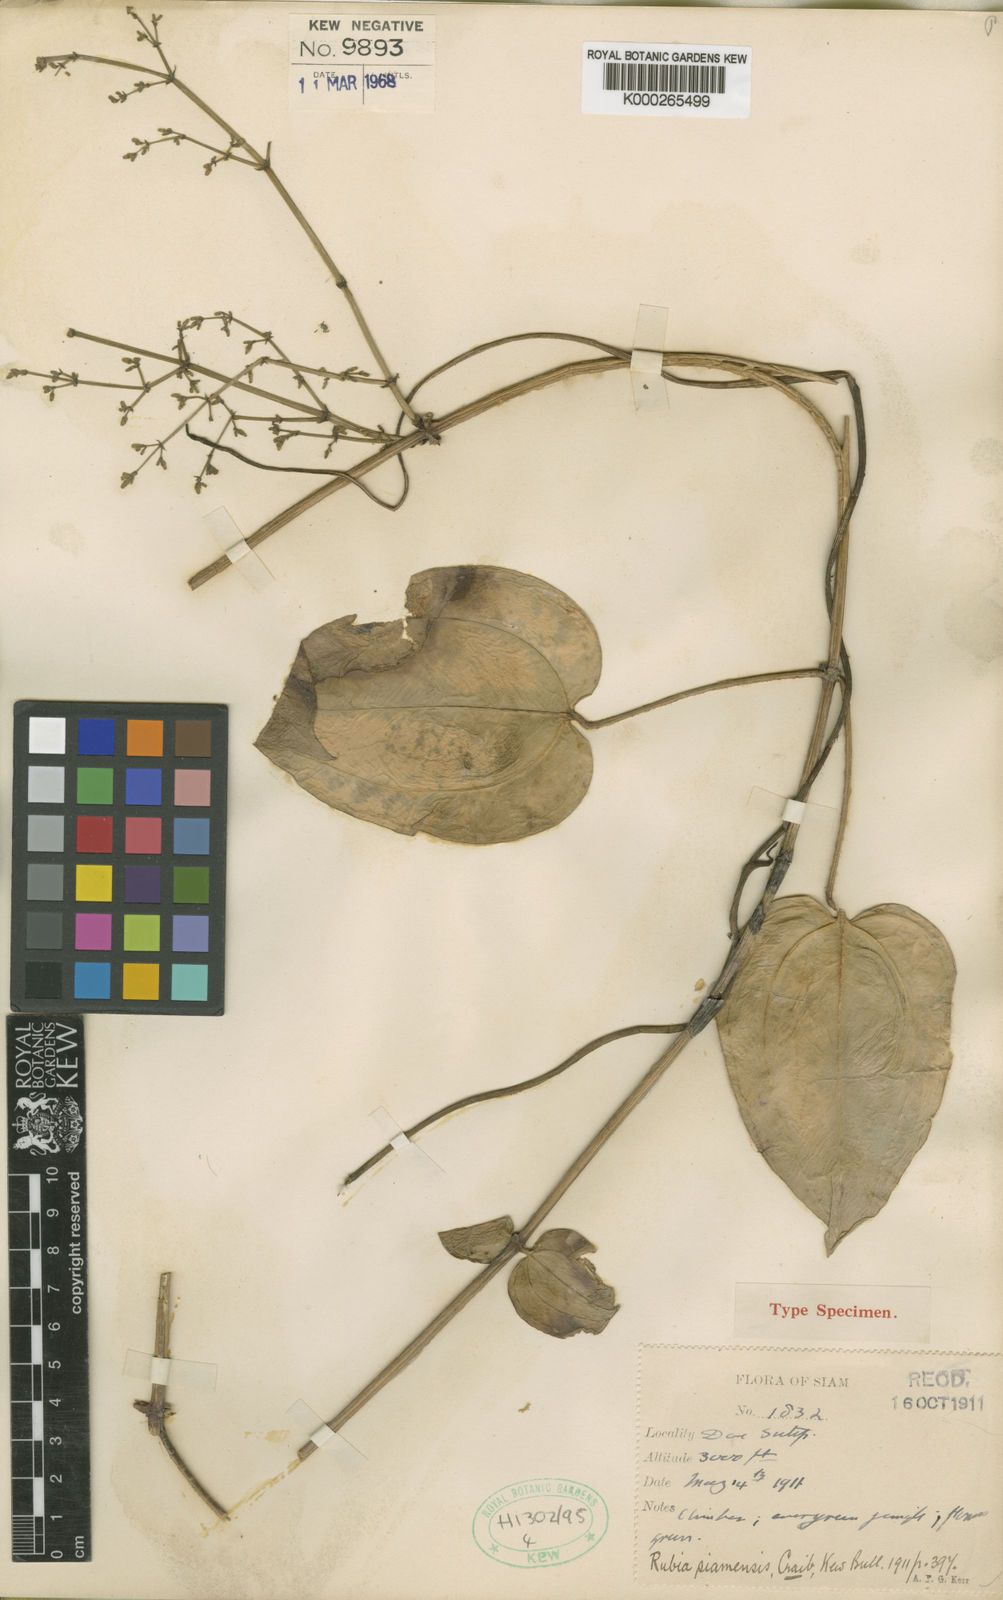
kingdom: Plantae
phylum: Tracheophyta
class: Magnoliopsida
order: Gentianales
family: Rubiaceae
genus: Rubia
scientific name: Rubia siamensis
